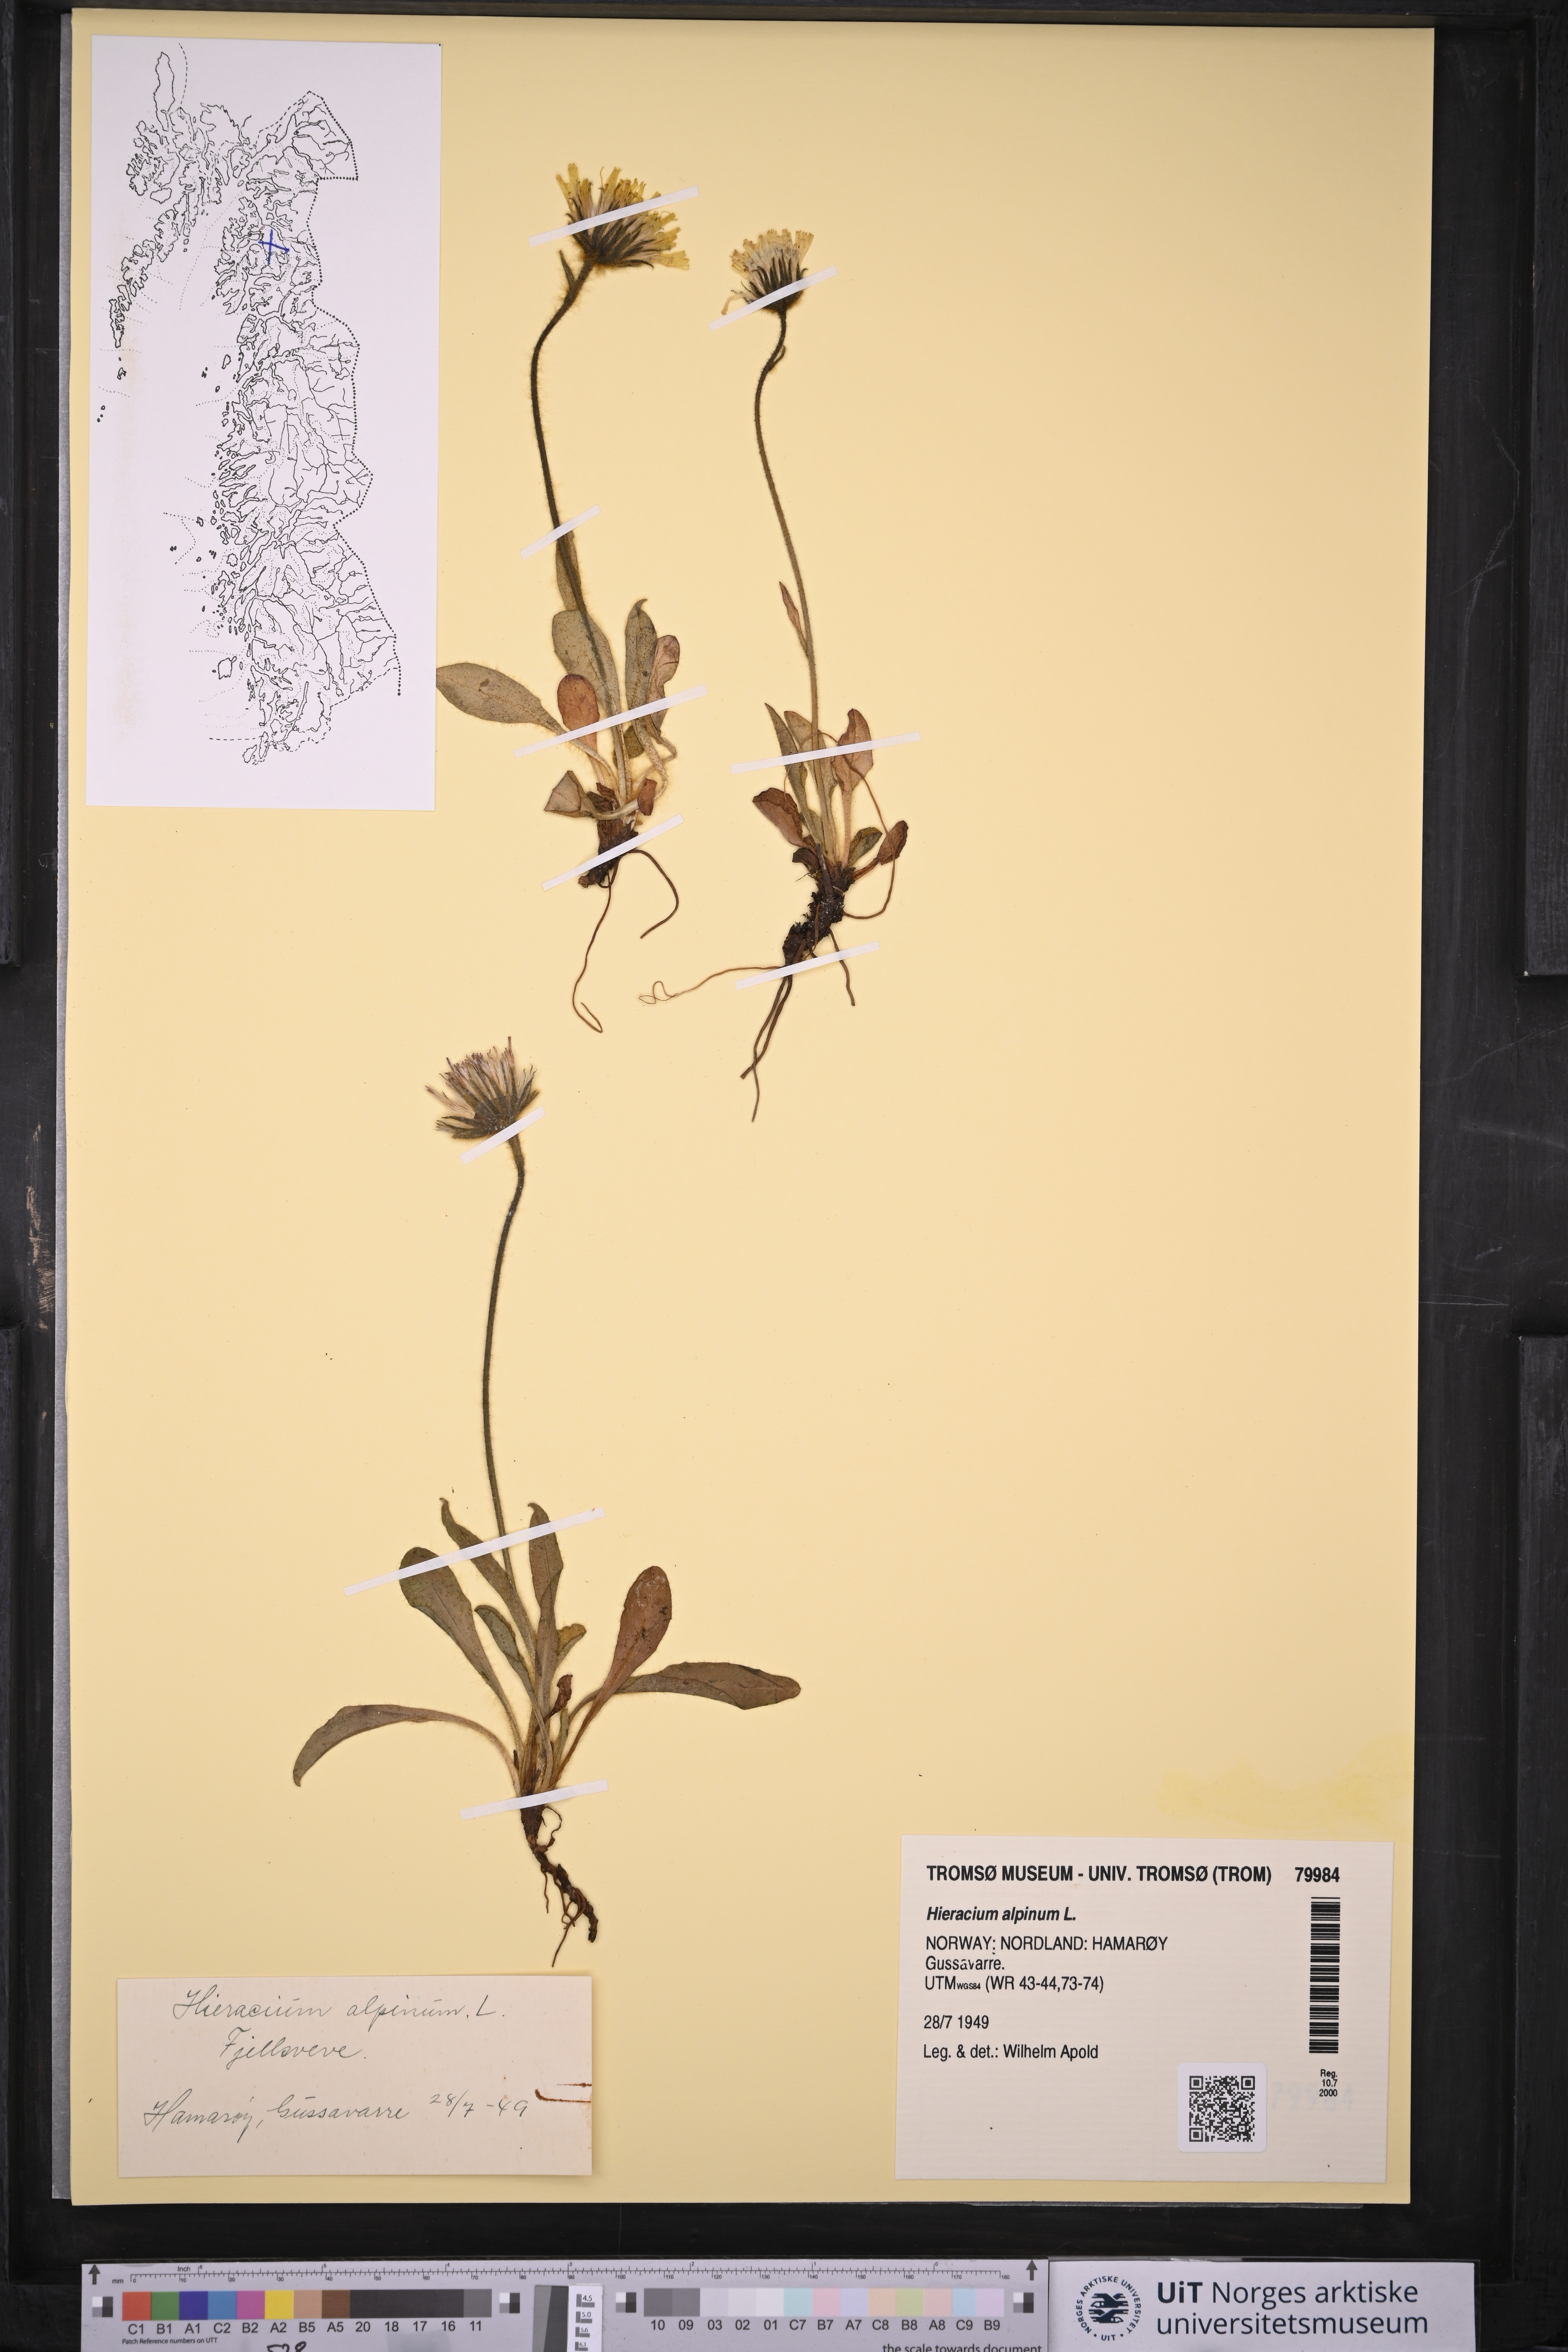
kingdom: Plantae
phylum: Tracheophyta
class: Magnoliopsida
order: Asterales
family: Asteraceae
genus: Hieracium
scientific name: Hieracium alpinum
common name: Alpine hawkweed
